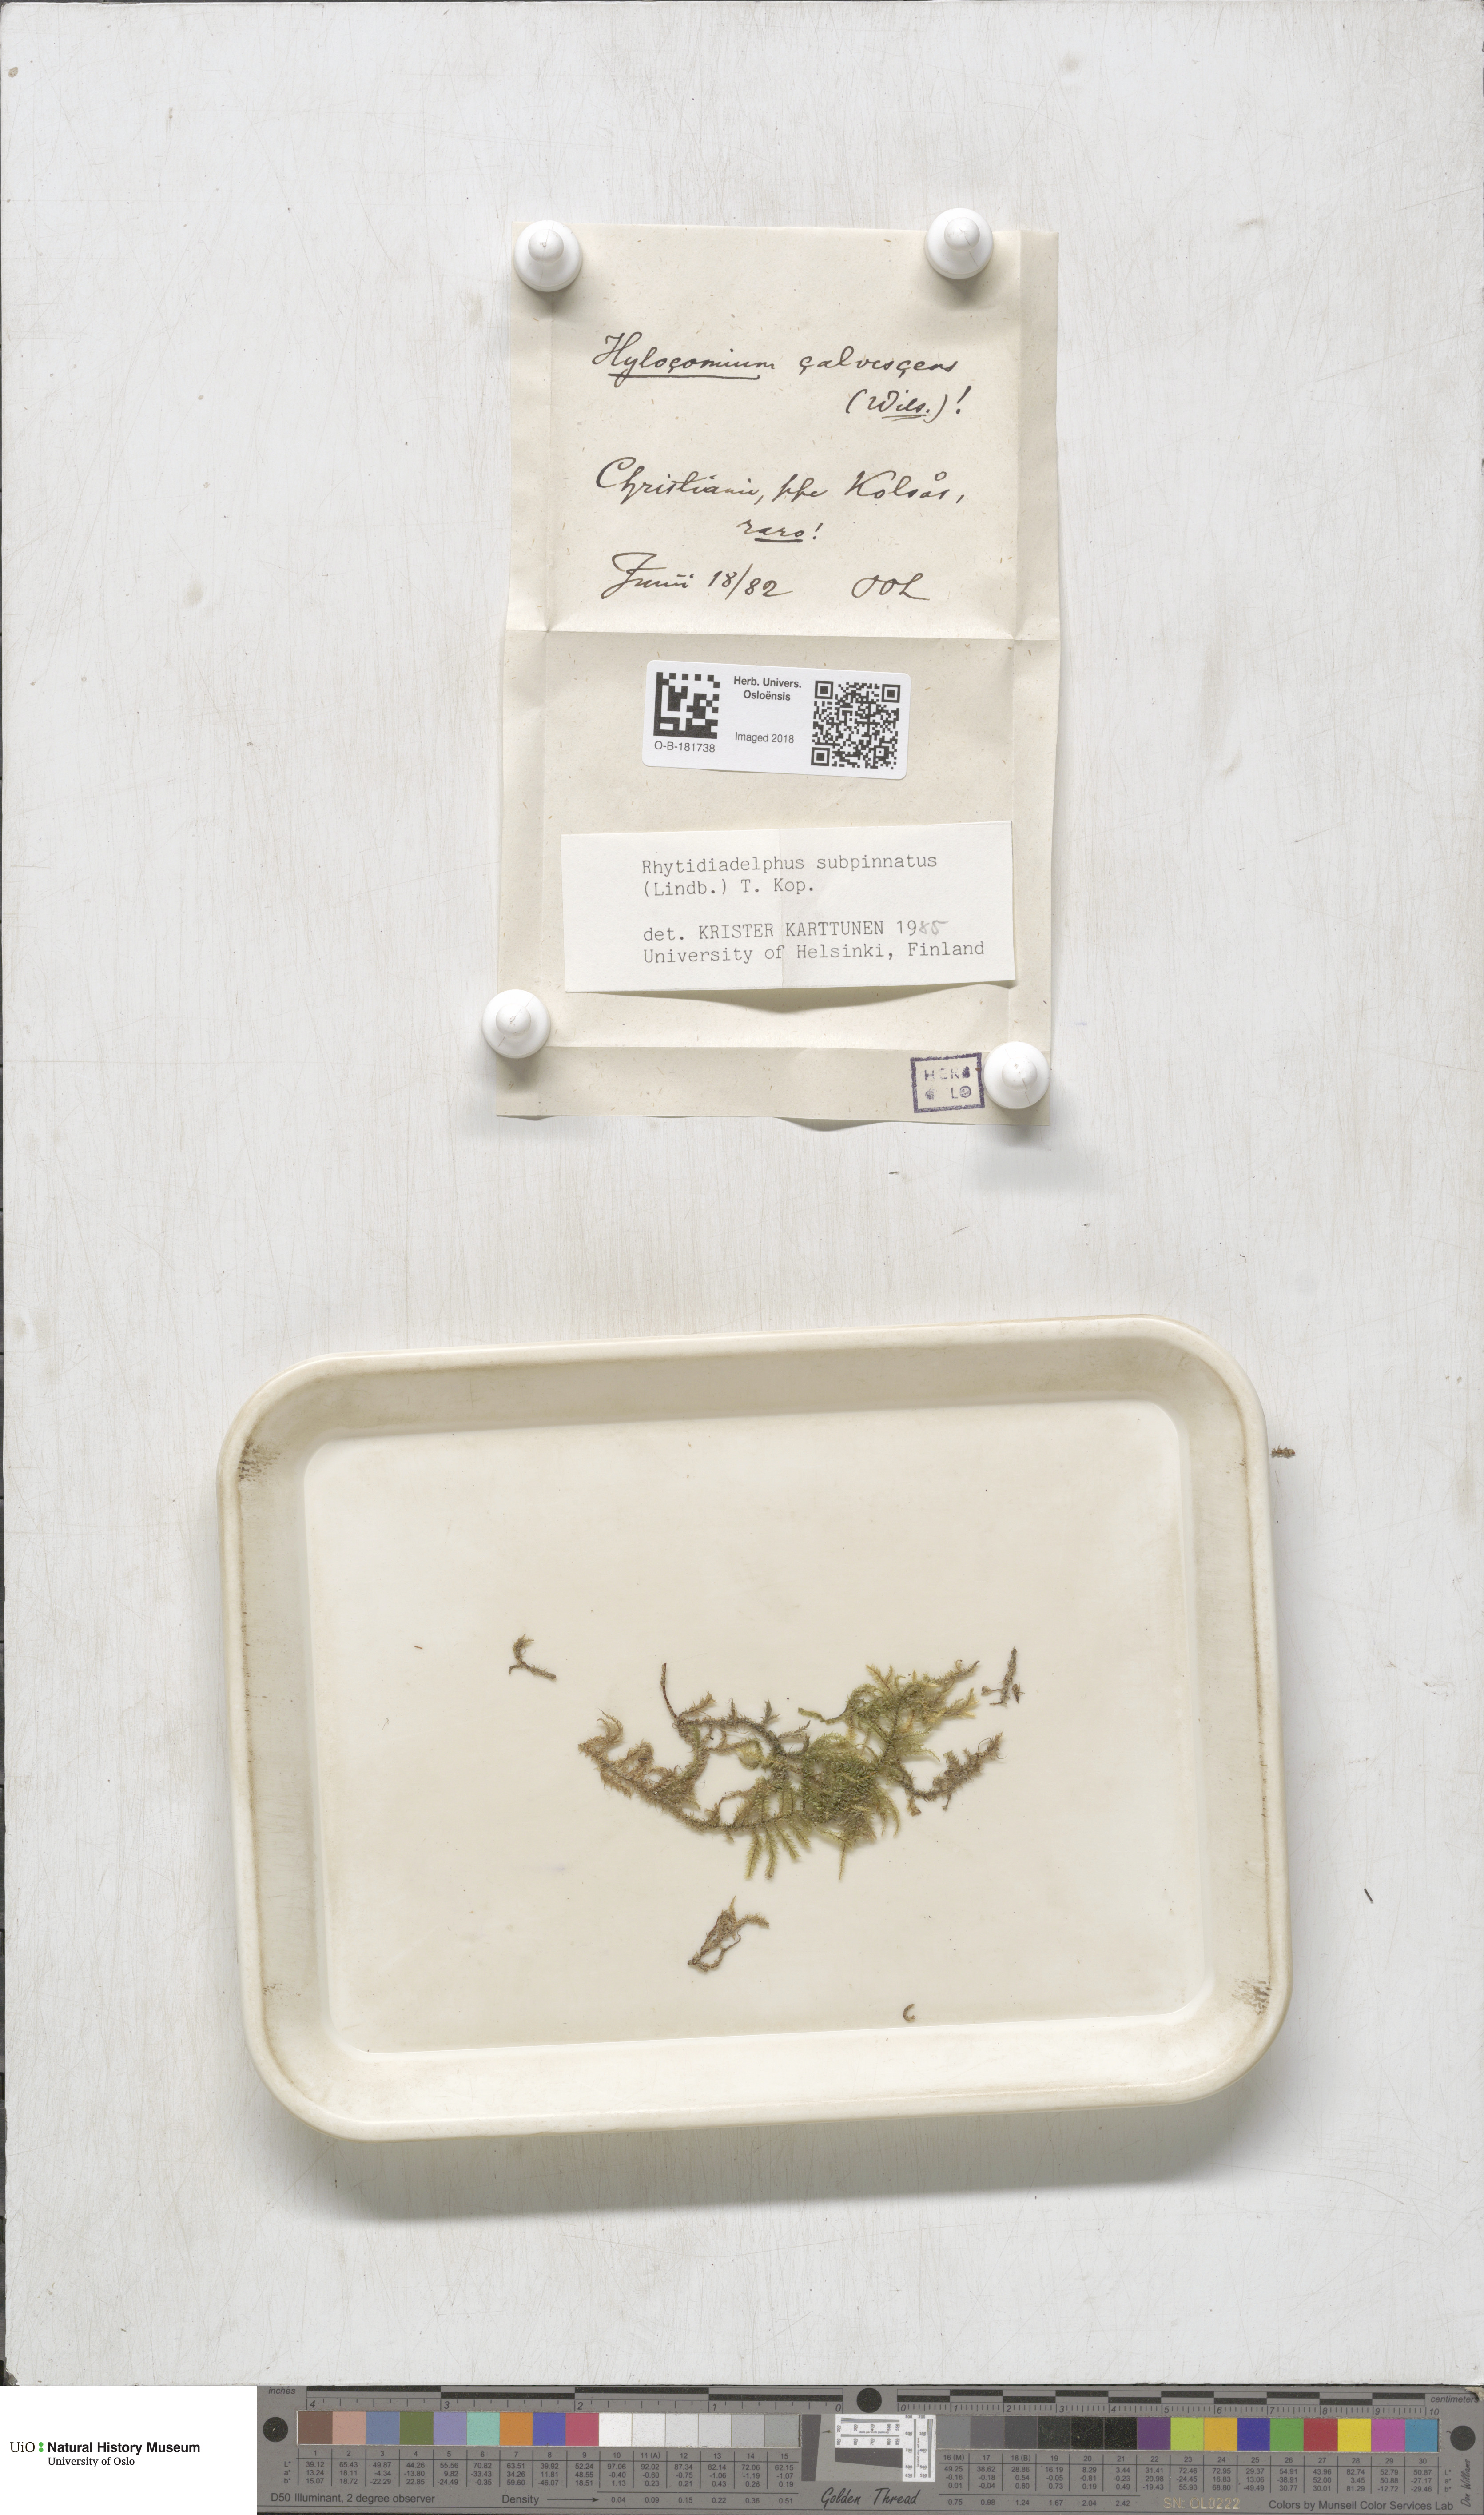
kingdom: Plantae
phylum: Bryophyta
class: Bryopsida
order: Hypnales
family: Hylocomiaceae
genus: Rhytidiadelphus
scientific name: Rhytidiadelphus subpinnatus
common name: Subpinnate gooseneck moss
